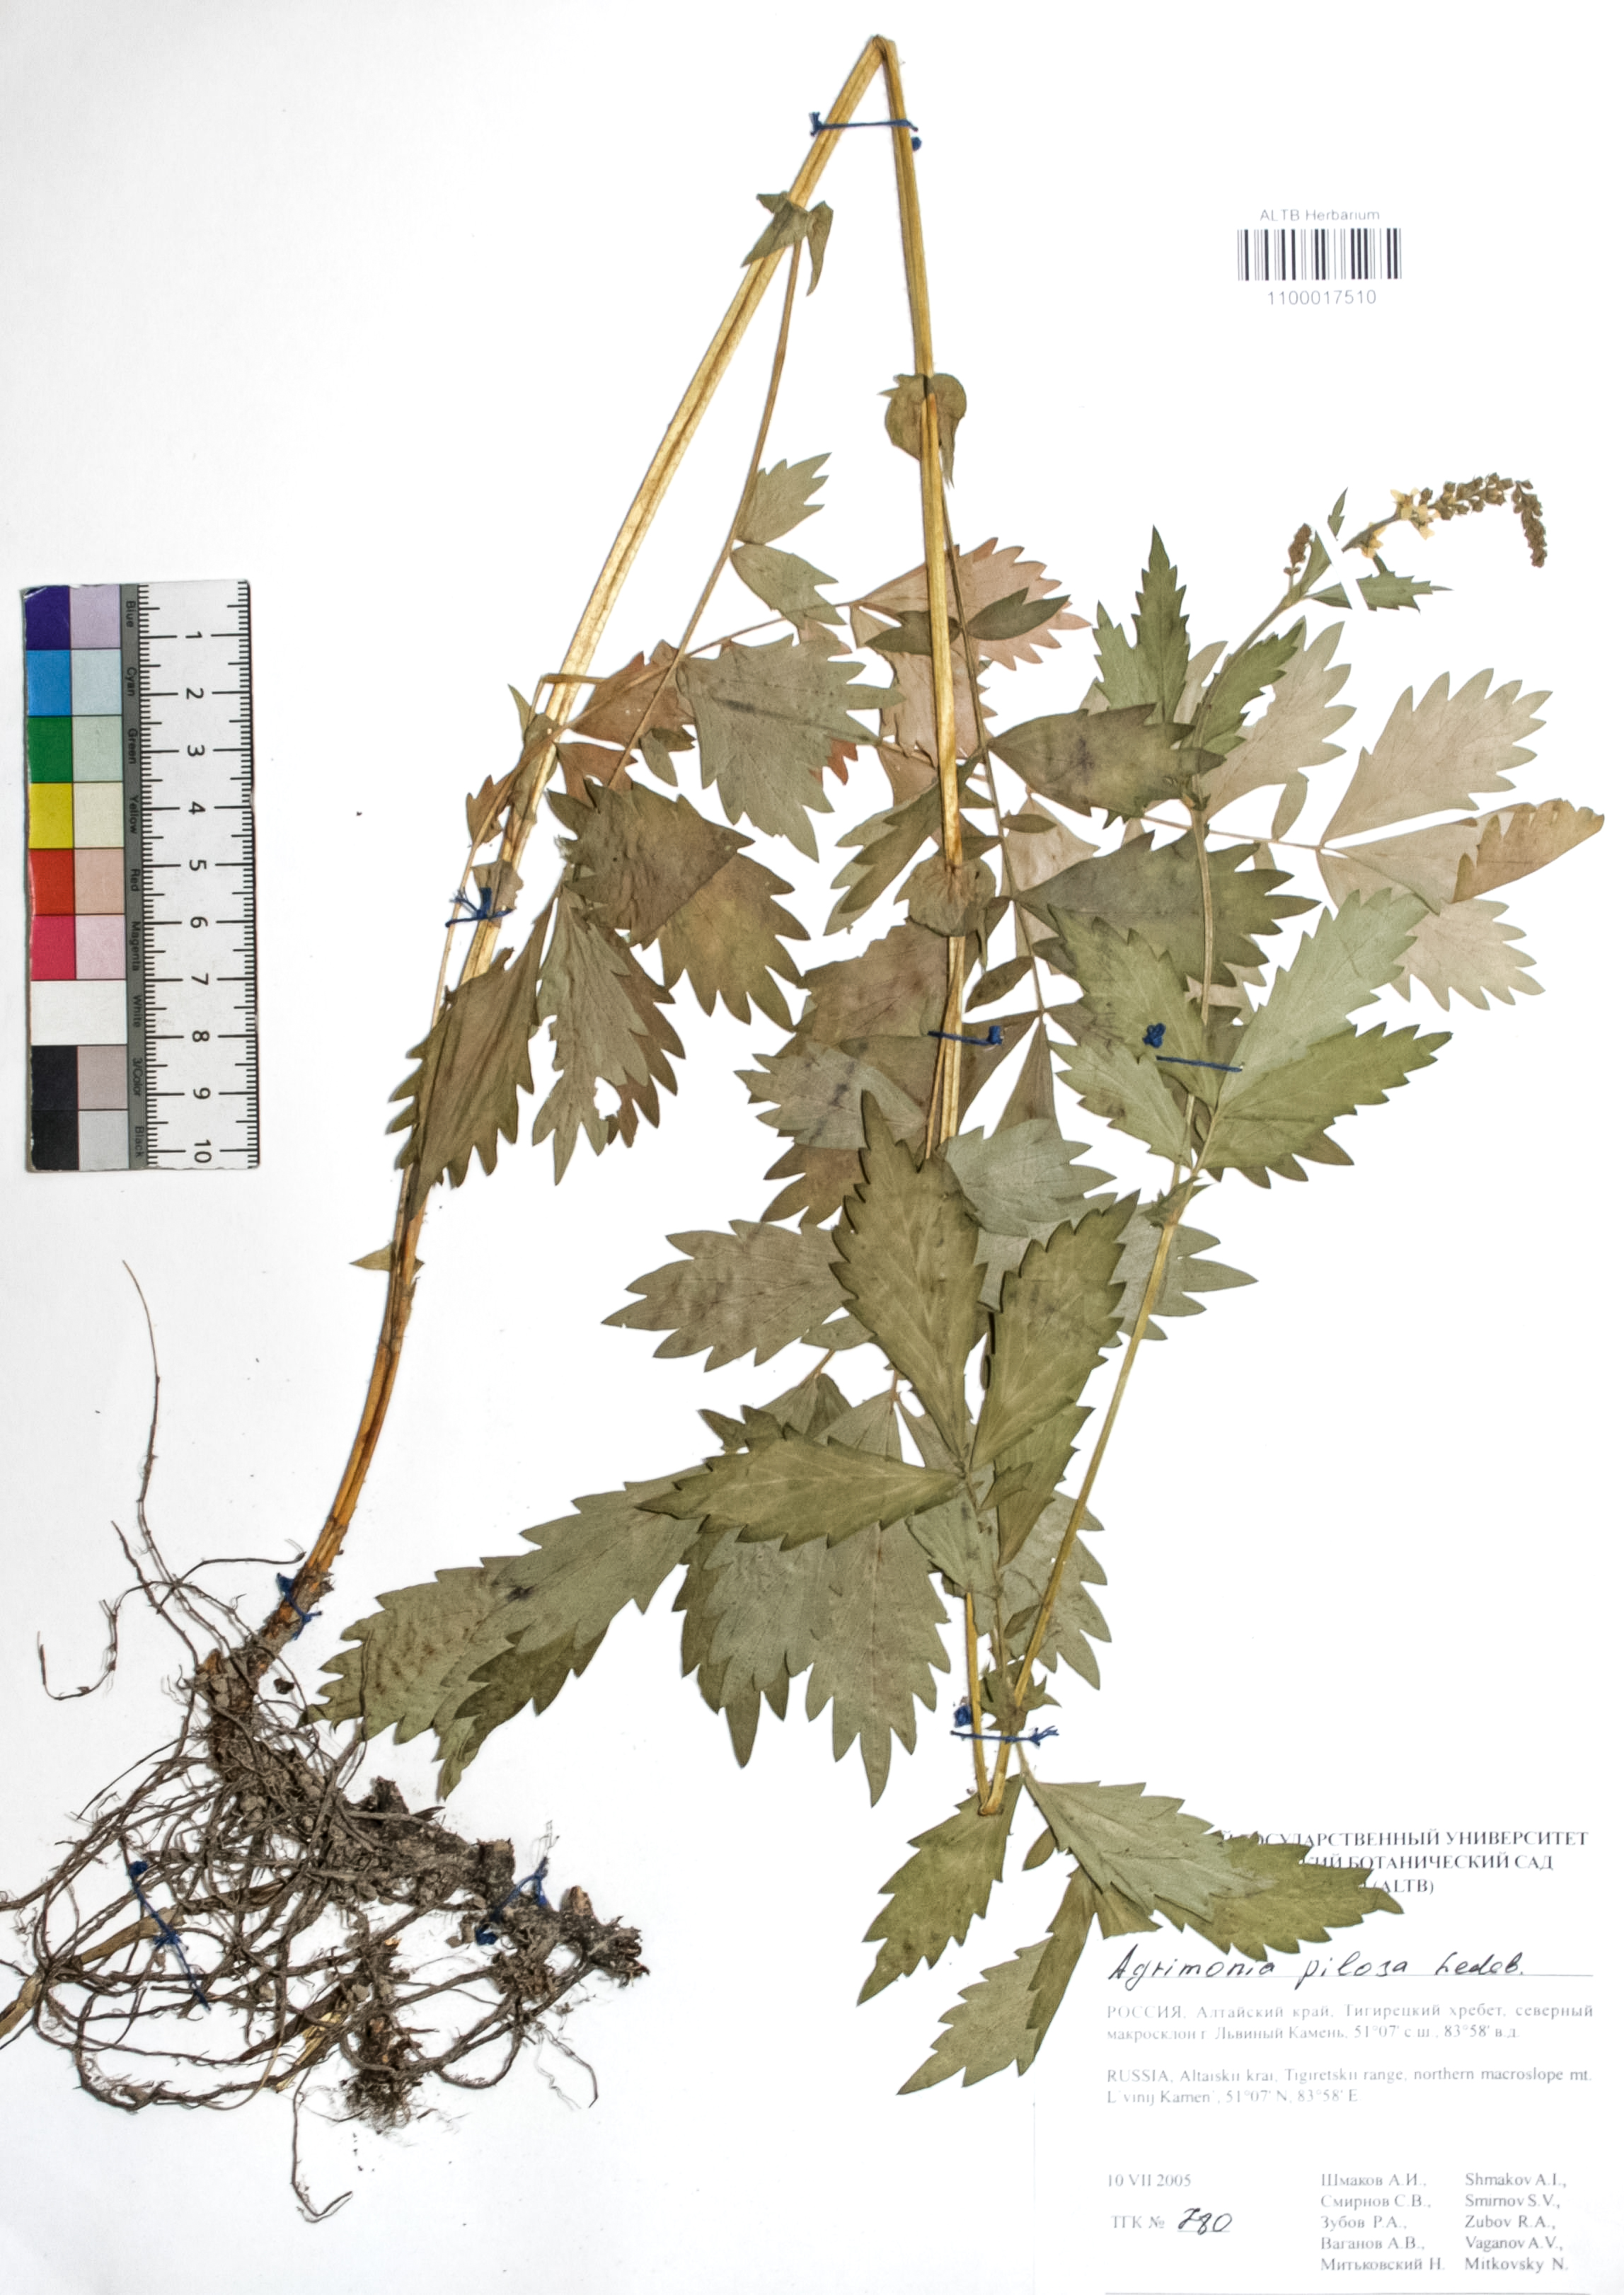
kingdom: Plantae
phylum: Tracheophyta
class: Magnoliopsida
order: Rosales
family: Rosaceae
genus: Agrimonia
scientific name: Agrimonia pilosa
